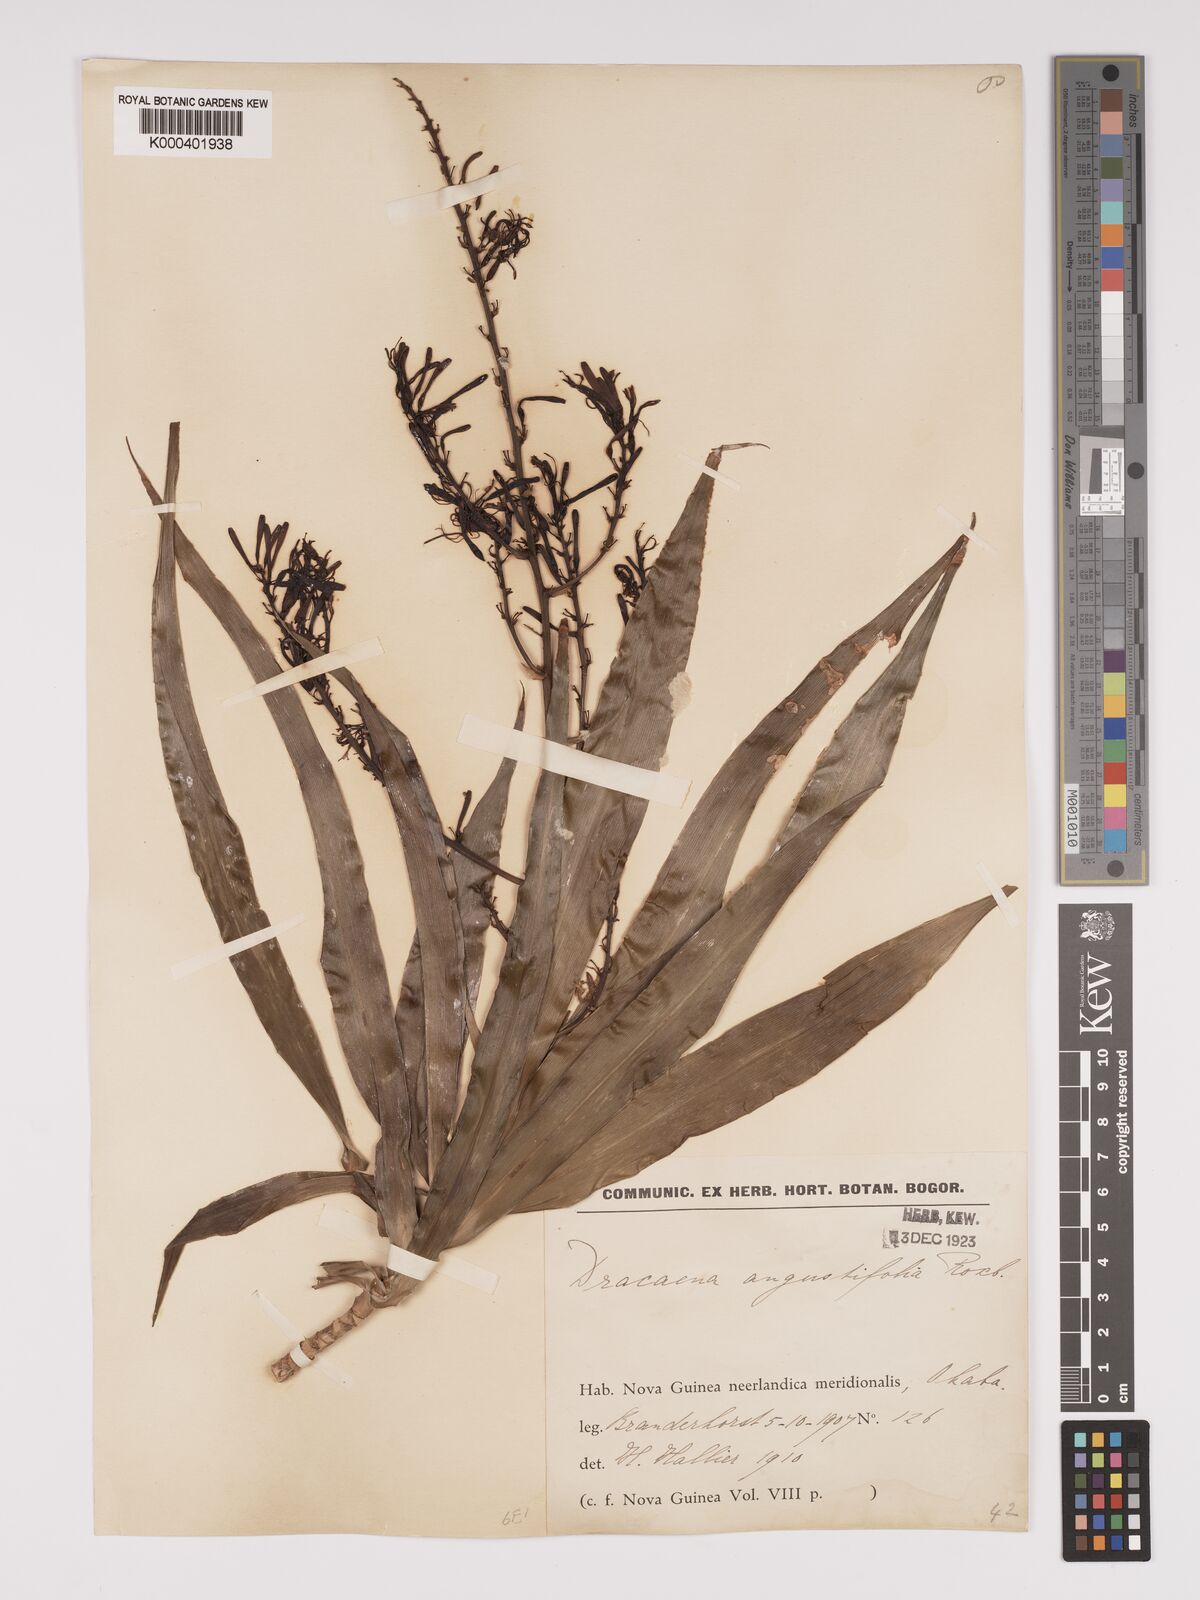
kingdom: Plantae
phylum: Tracheophyta
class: Liliopsida
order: Asparagales
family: Asparagaceae
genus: Dracaena
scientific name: Dracaena angustifolia
